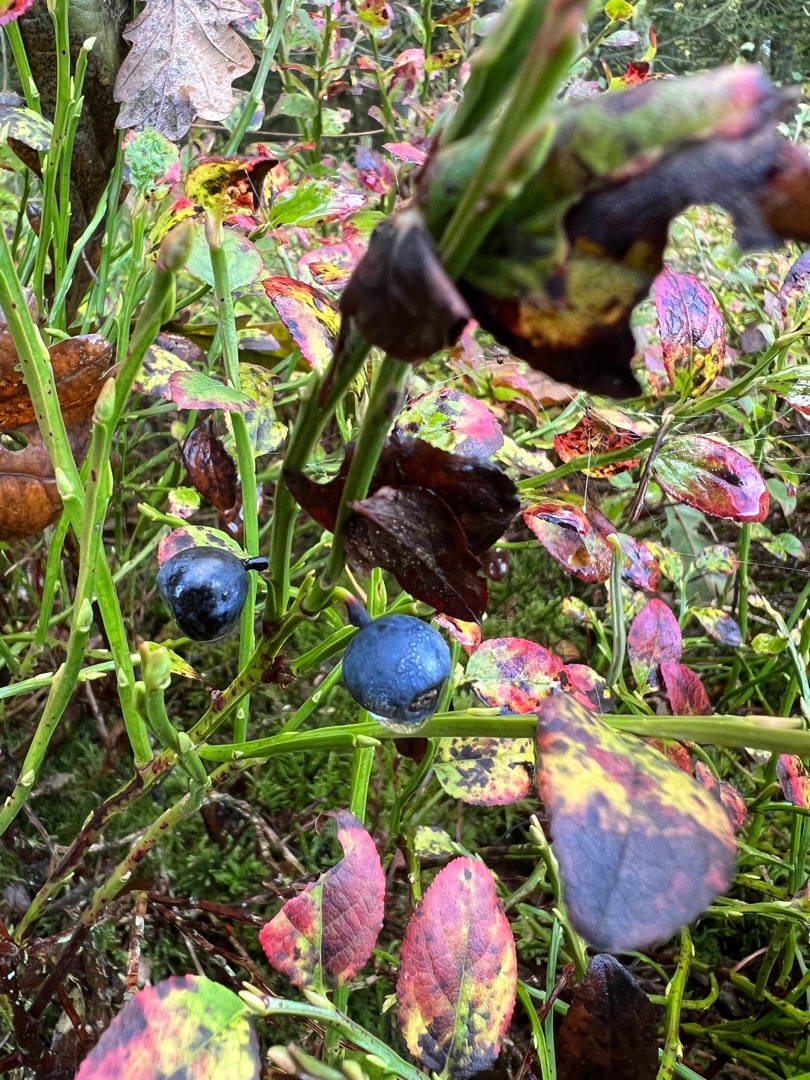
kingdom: Plantae
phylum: Tracheophyta
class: Magnoliopsida
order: Ericales
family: Ericaceae
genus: Vaccinium
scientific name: Vaccinium myrtillus
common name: Blåbær
